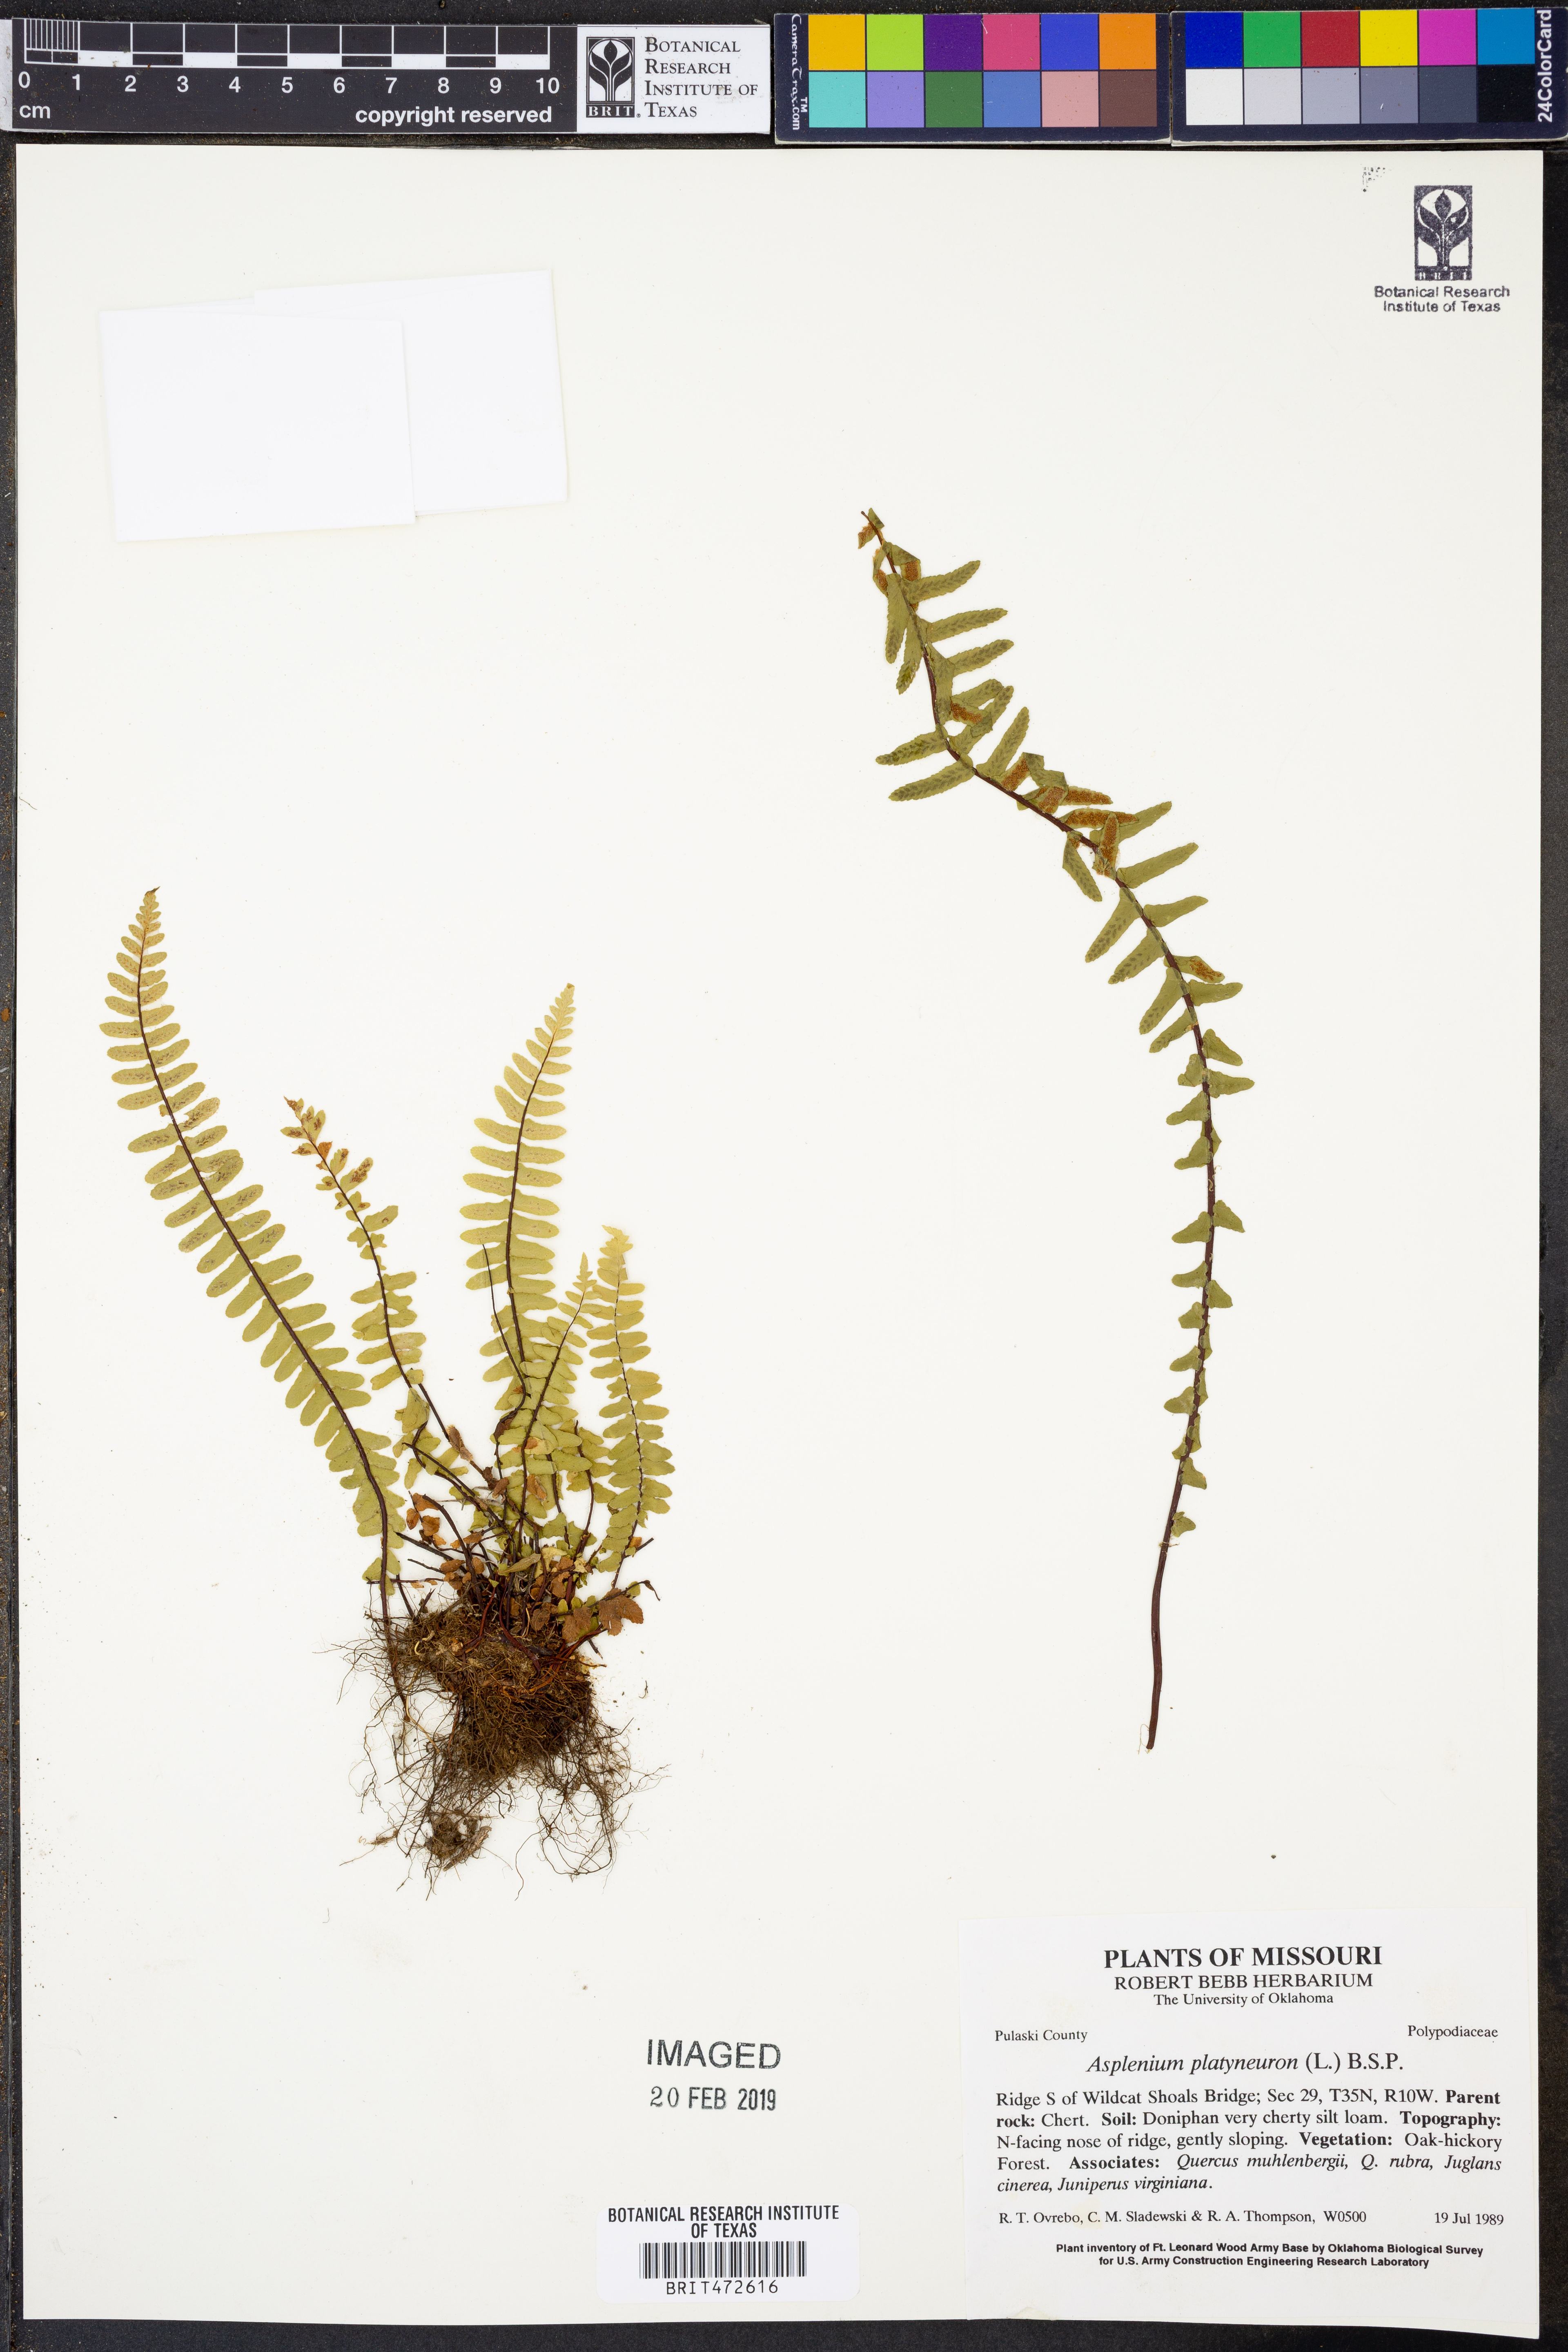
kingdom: Plantae
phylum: Tracheophyta
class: Polypodiopsida
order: Polypodiales
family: Aspleniaceae
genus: Asplenium
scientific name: Asplenium platyneuron
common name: Ebony spleenwort
